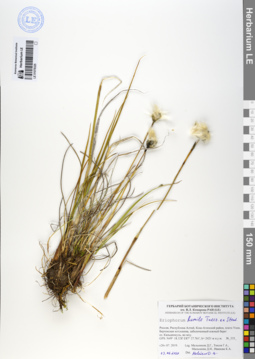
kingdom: Plantae
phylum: Tracheophyta
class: Liliopsida
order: Poales
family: Cyperaceae
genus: Eriophorum
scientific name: Eriophorum humile
